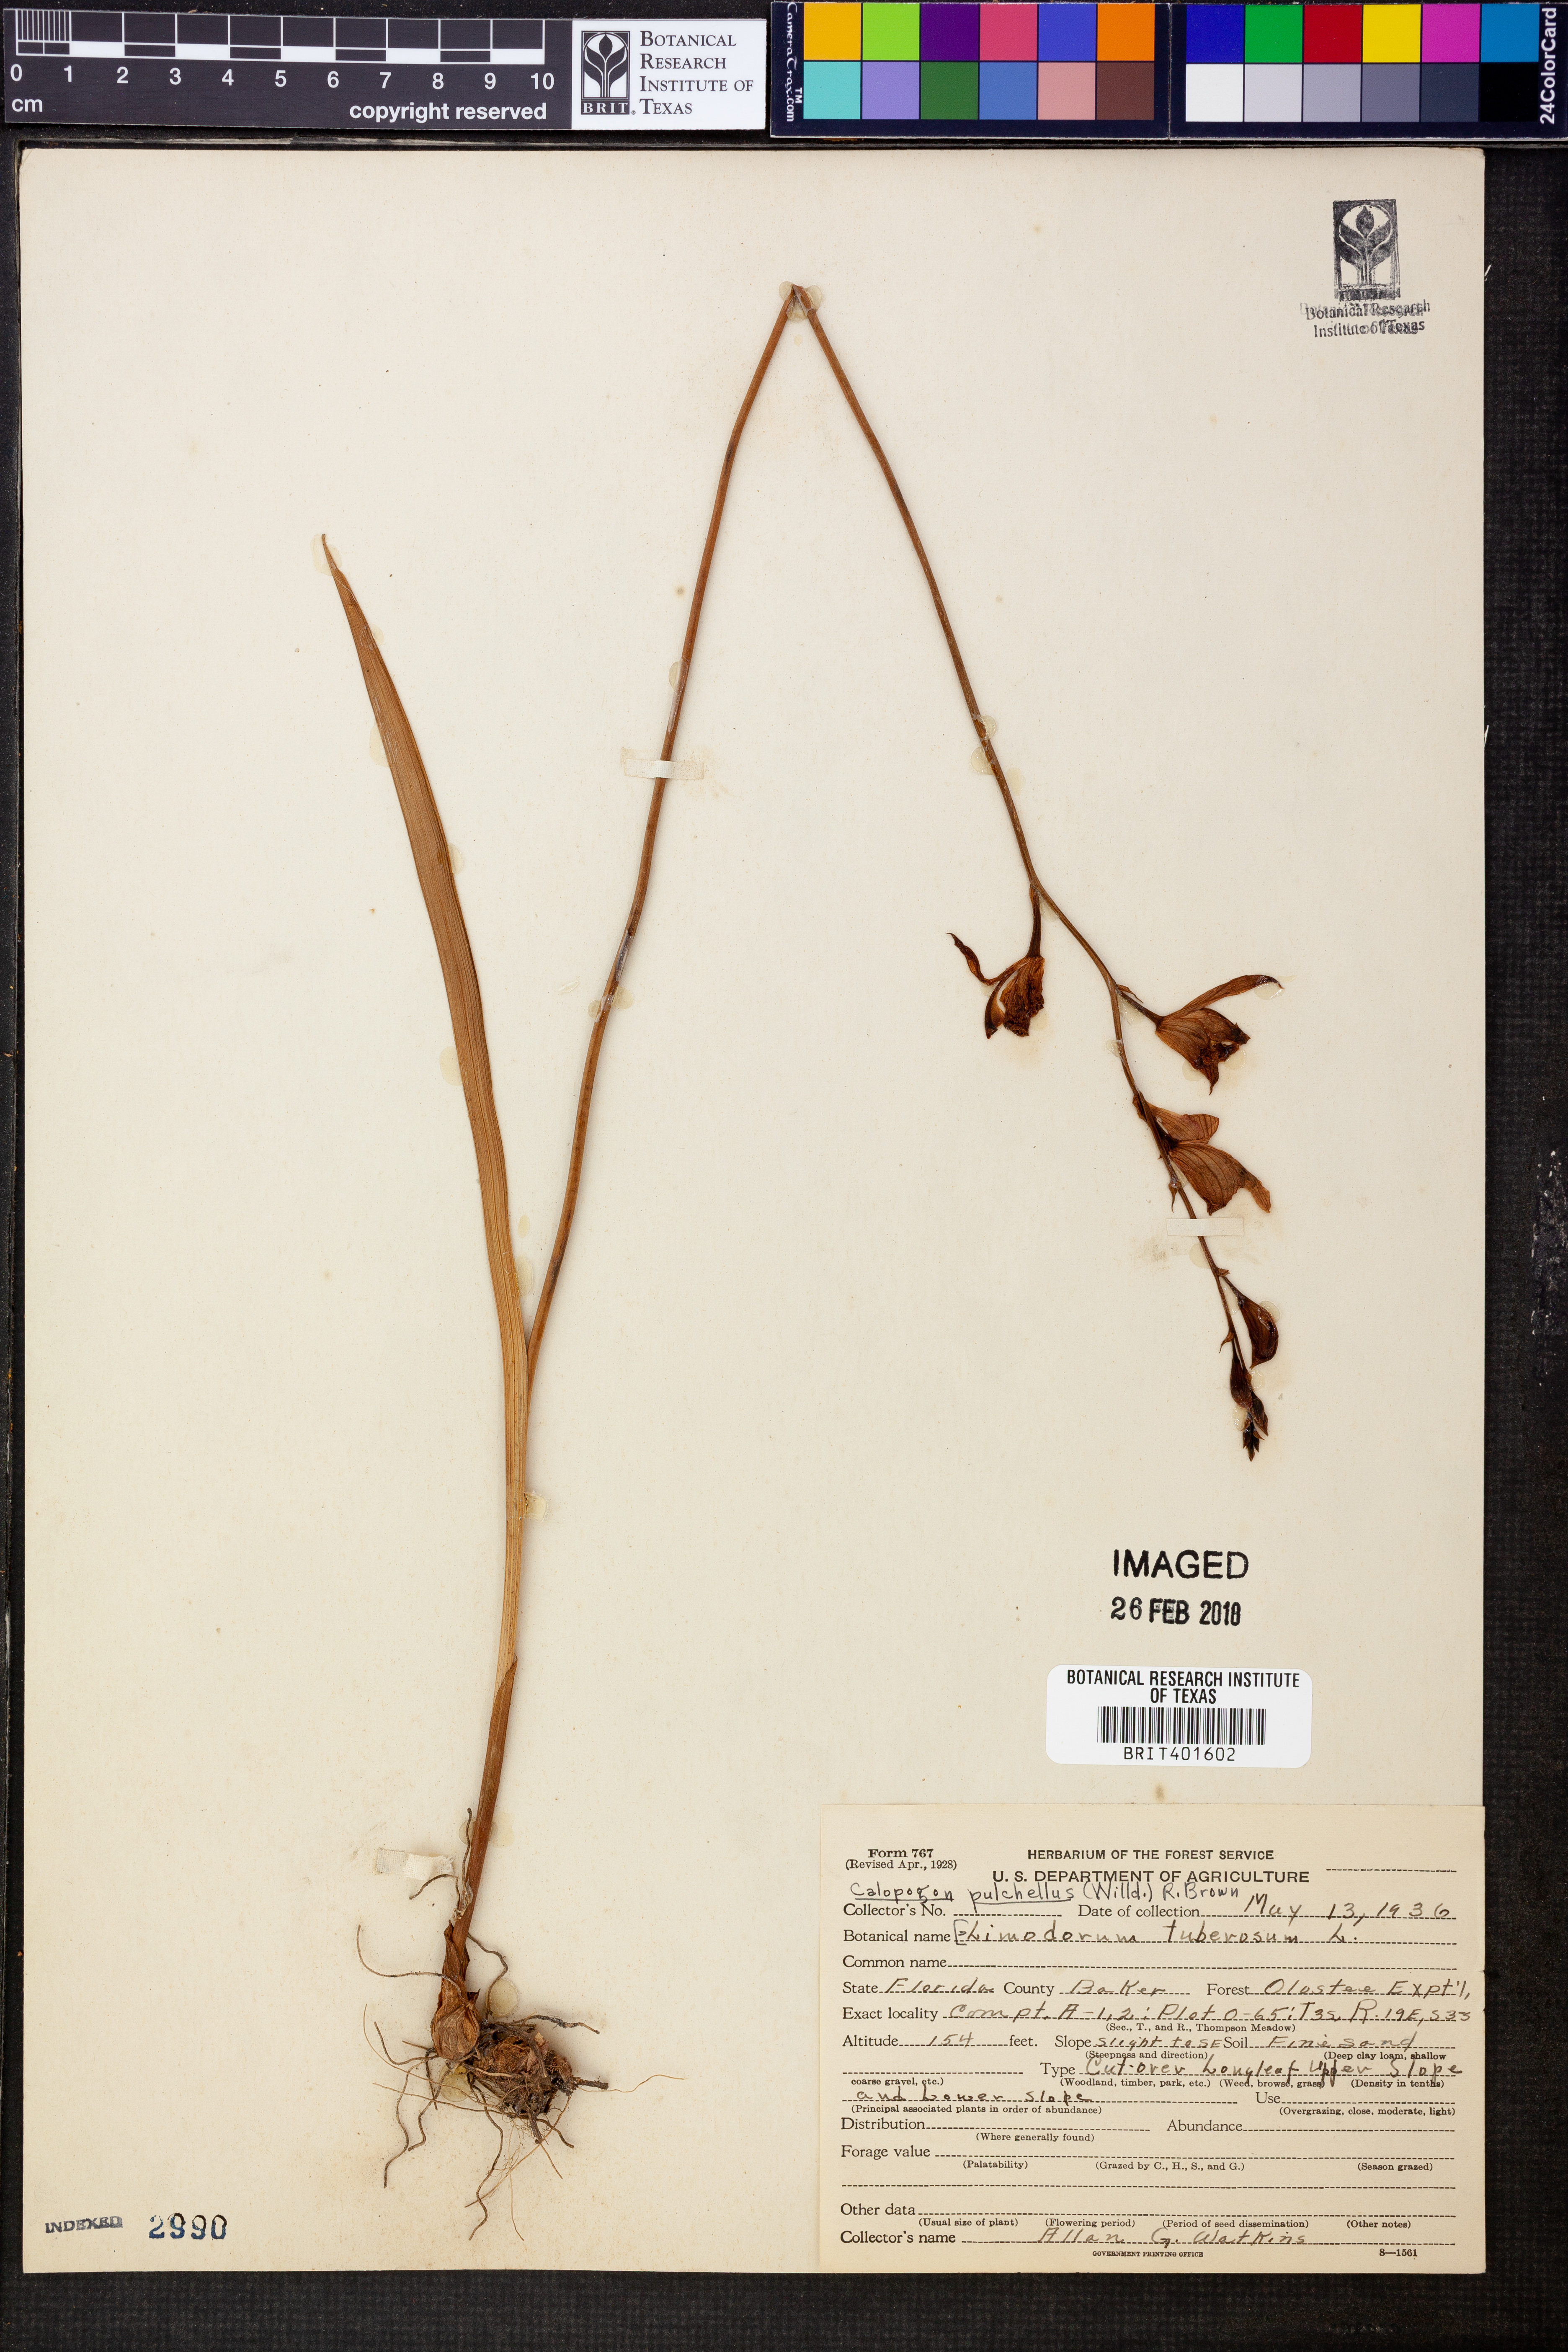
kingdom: Plantae
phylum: Tracheophyta
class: Liliopsida
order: Asparagales
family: Orchidaceae
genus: Calopogon
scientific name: Calopogon tuberosus
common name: Grass-pink
